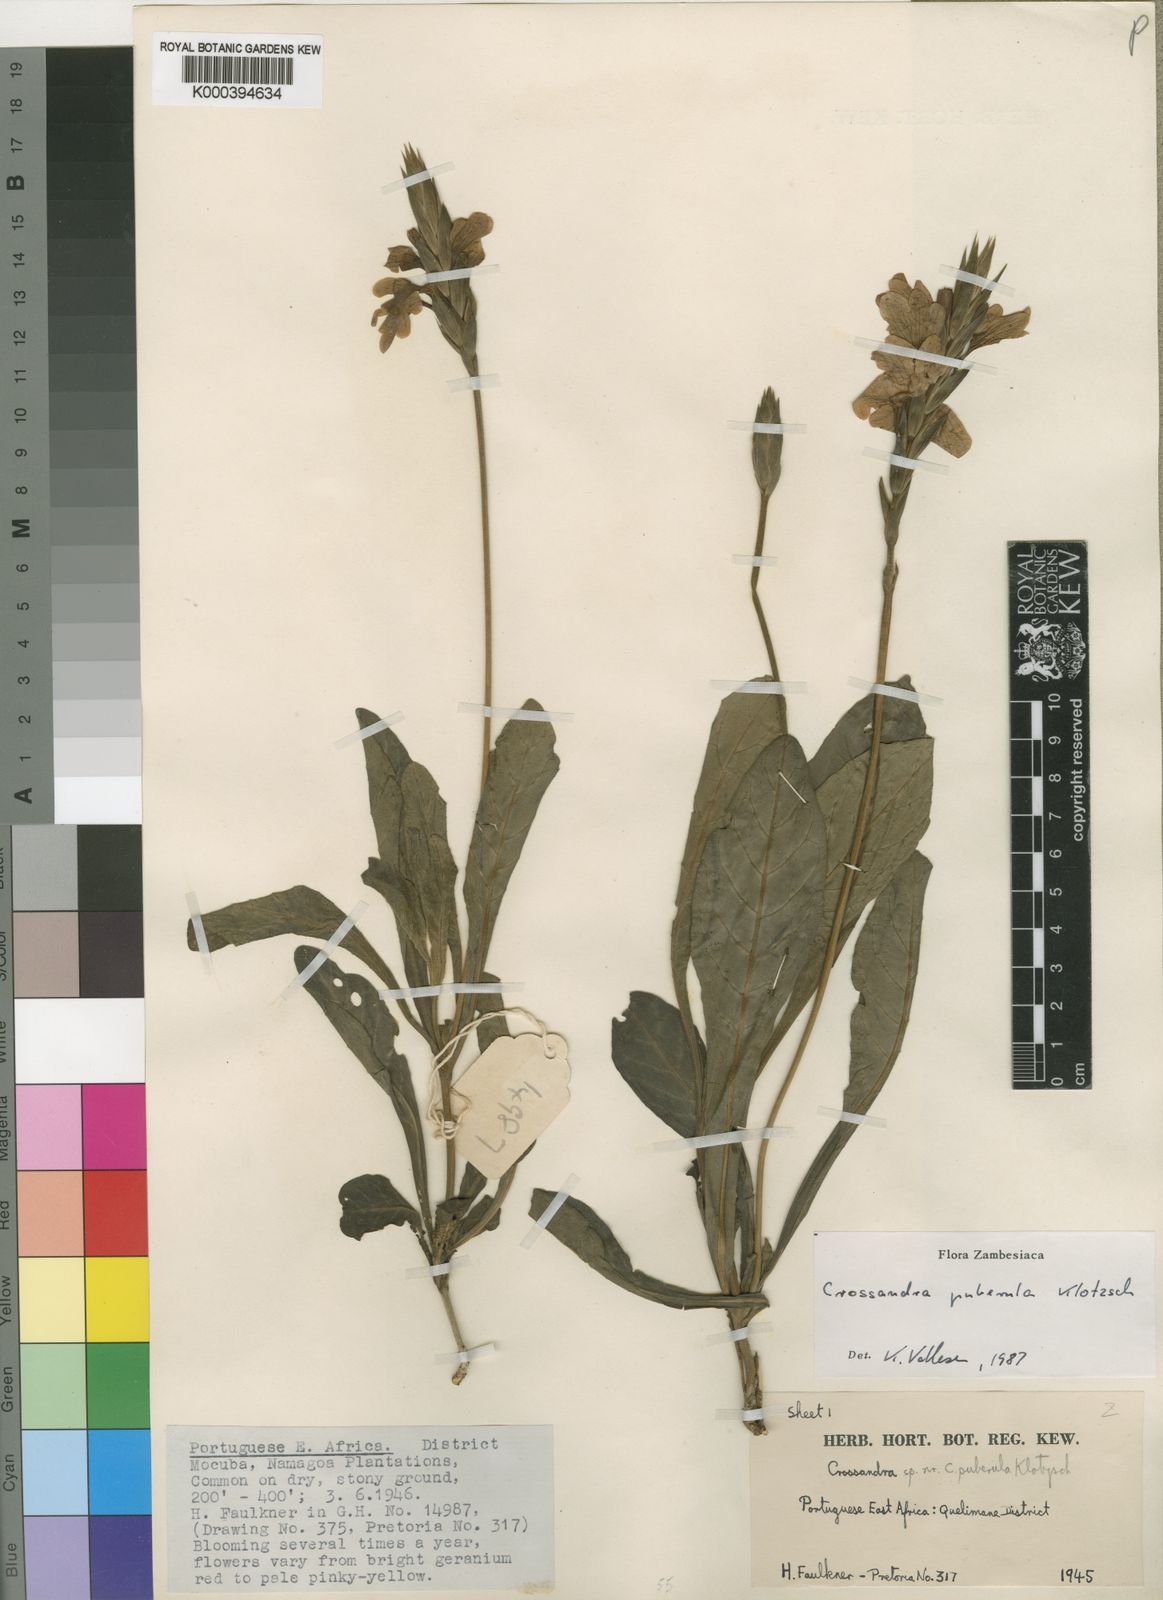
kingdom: Plantae
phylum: Tracheophyta
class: Magnoliopsida
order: Lamiales
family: Acanthaceae
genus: Crossandra
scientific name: Crossandra puberula
